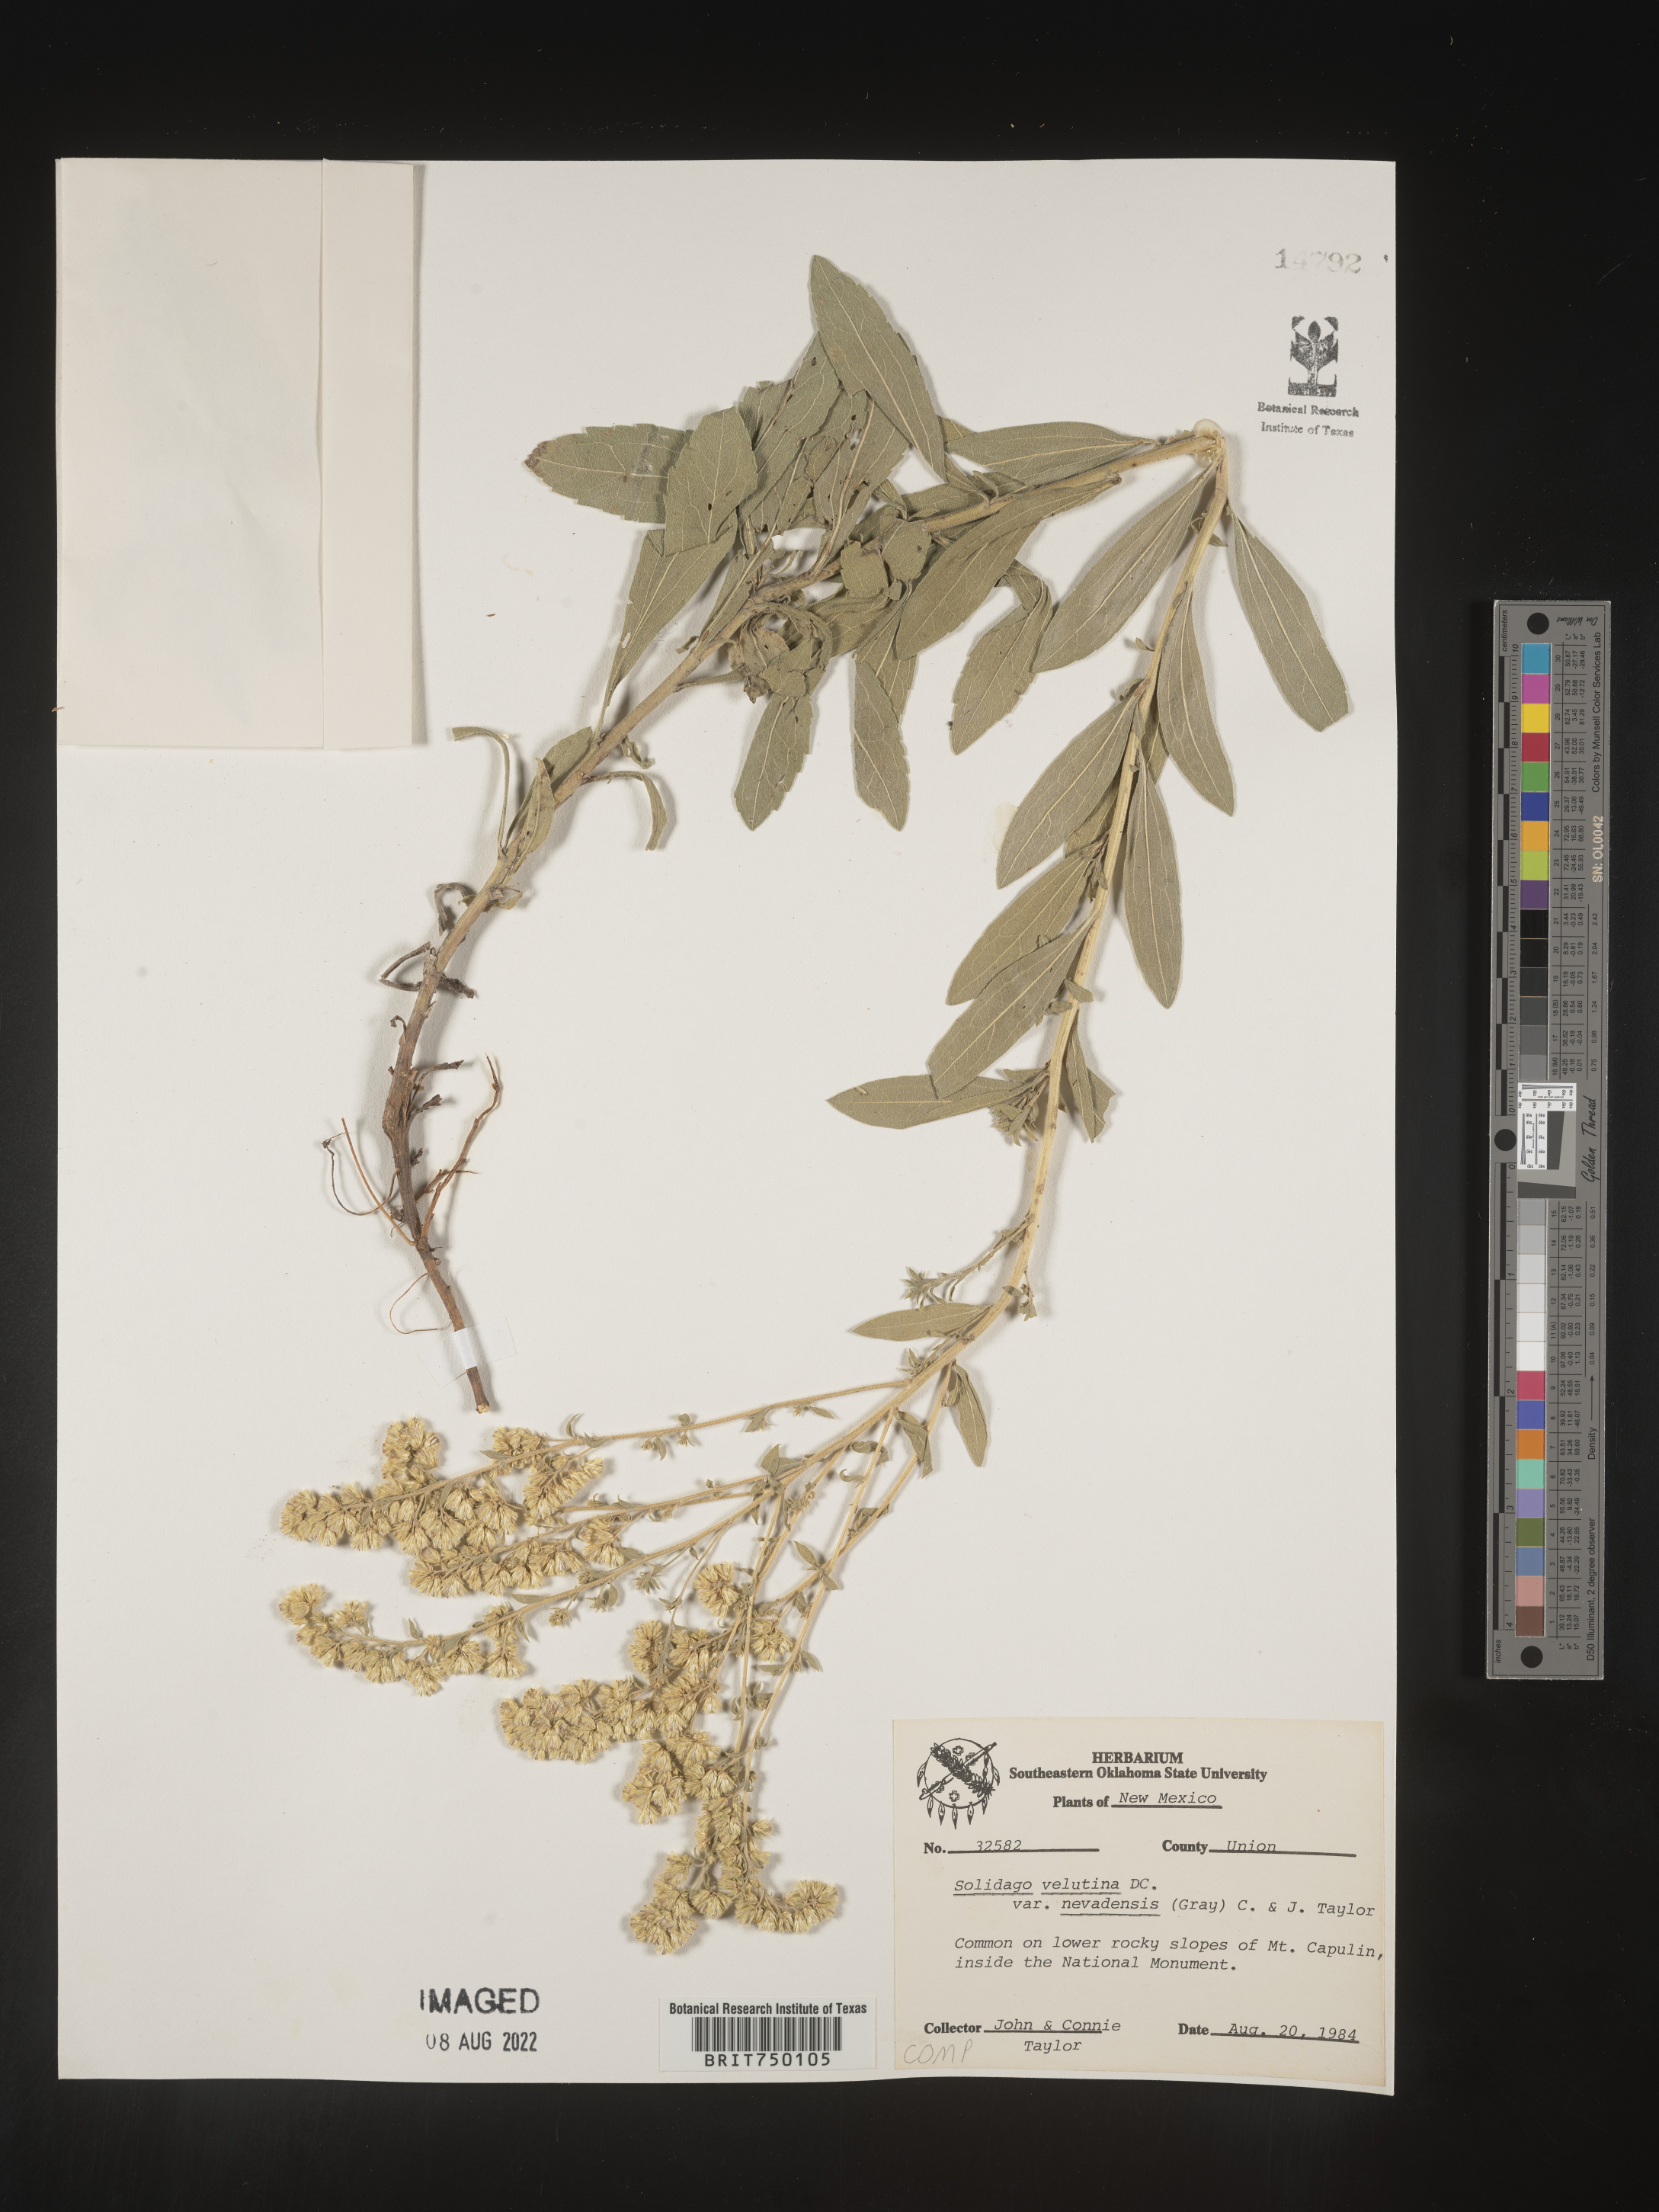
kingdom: Plantae
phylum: Tracheophyta
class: Magnoliopsida
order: Asterales
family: Asteraceae
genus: Solidago
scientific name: Solidago velutina
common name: Three-nerve goldenrod
